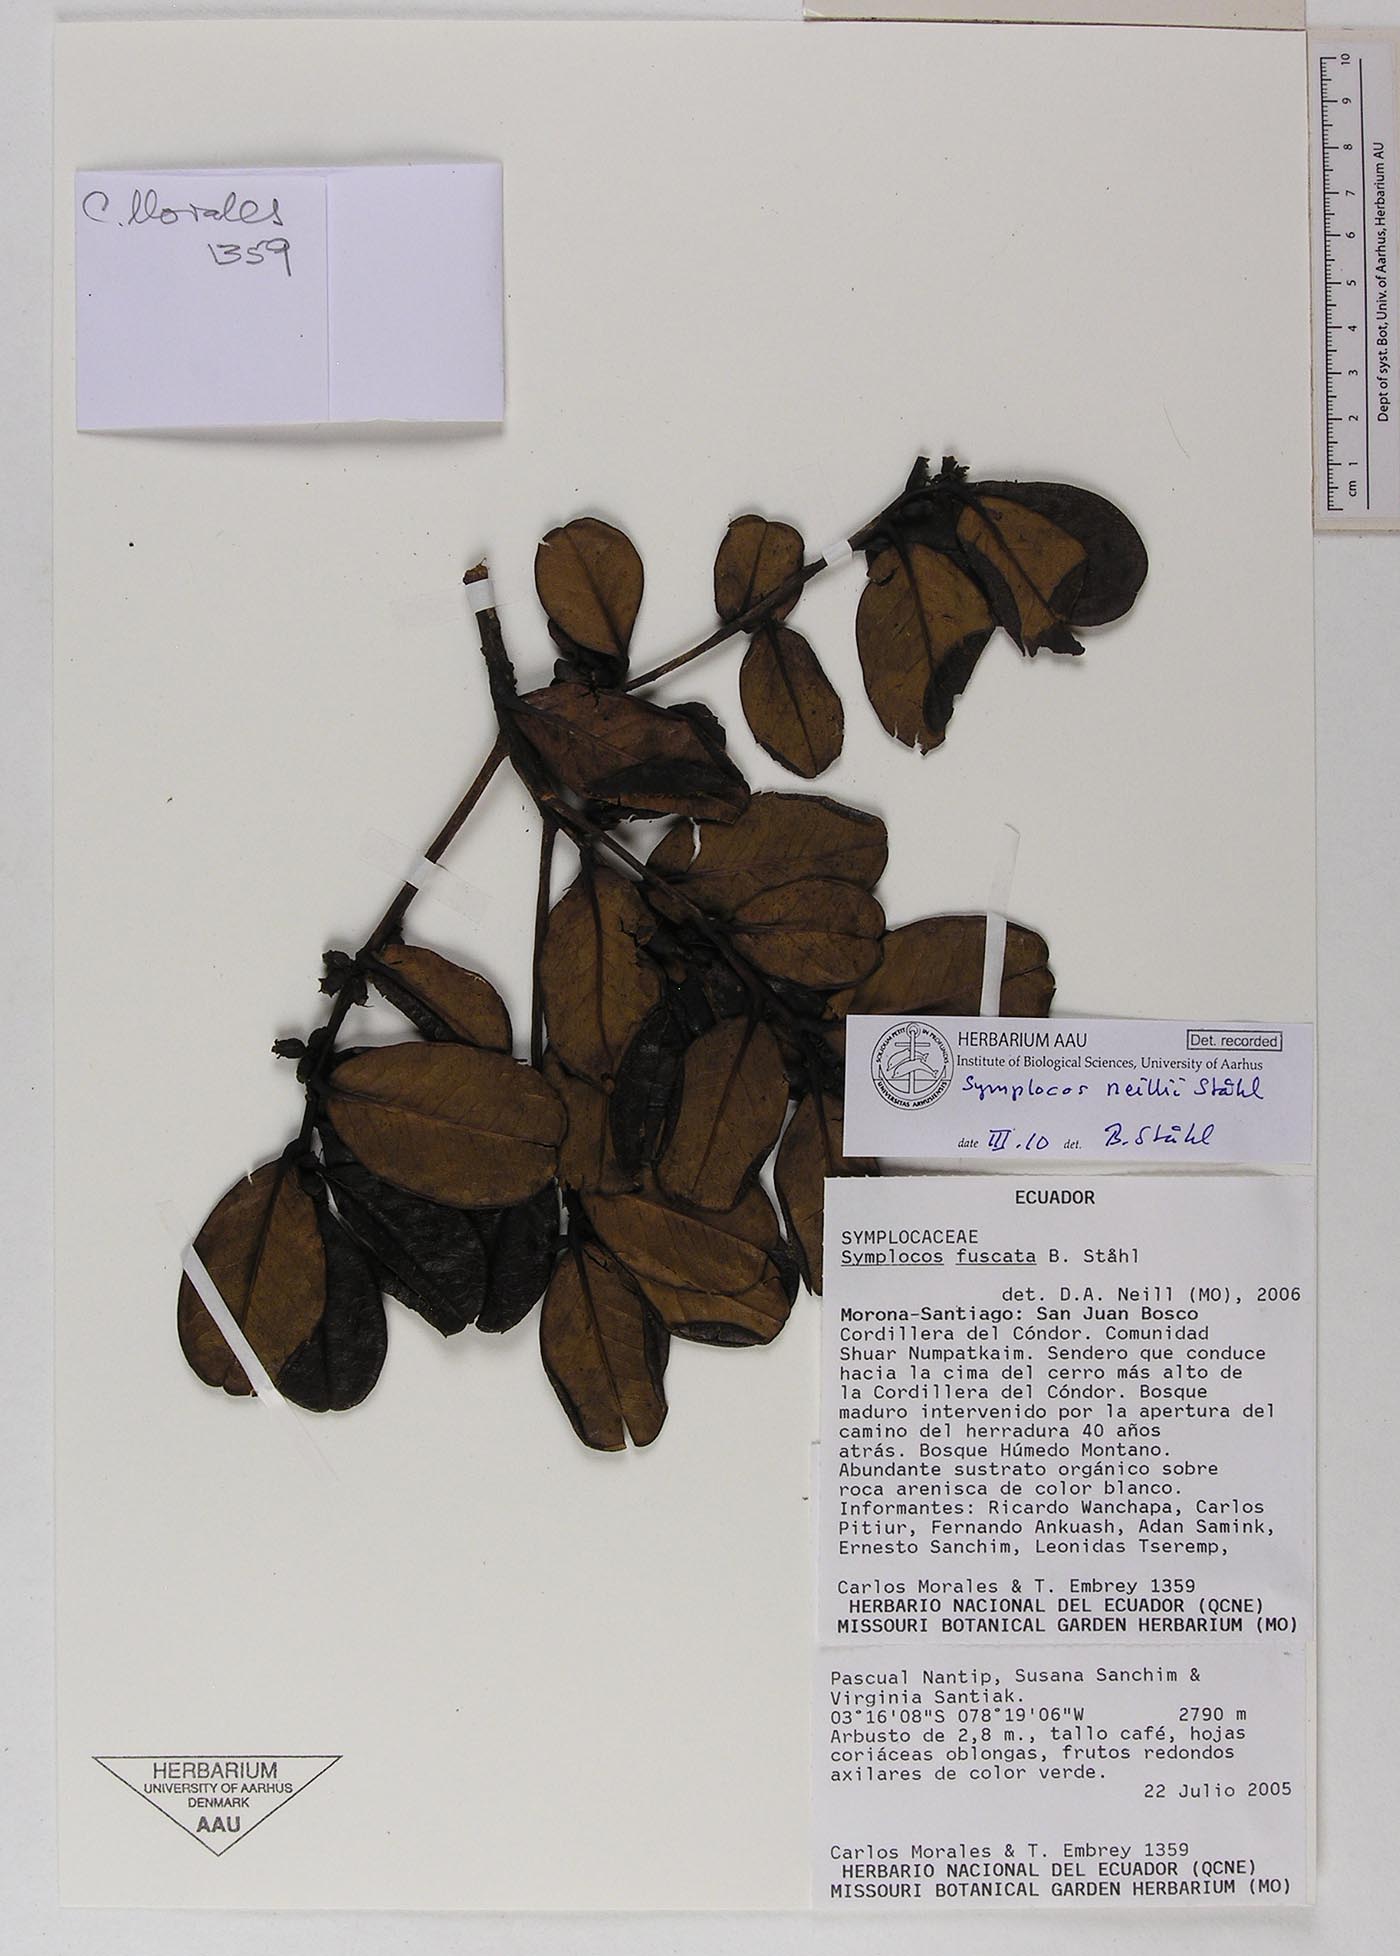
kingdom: Plantae
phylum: Tracheophyta
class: Magnoliopsida
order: Ericales
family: Symplocaceae
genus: Symplocos
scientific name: Symplocos neillii
